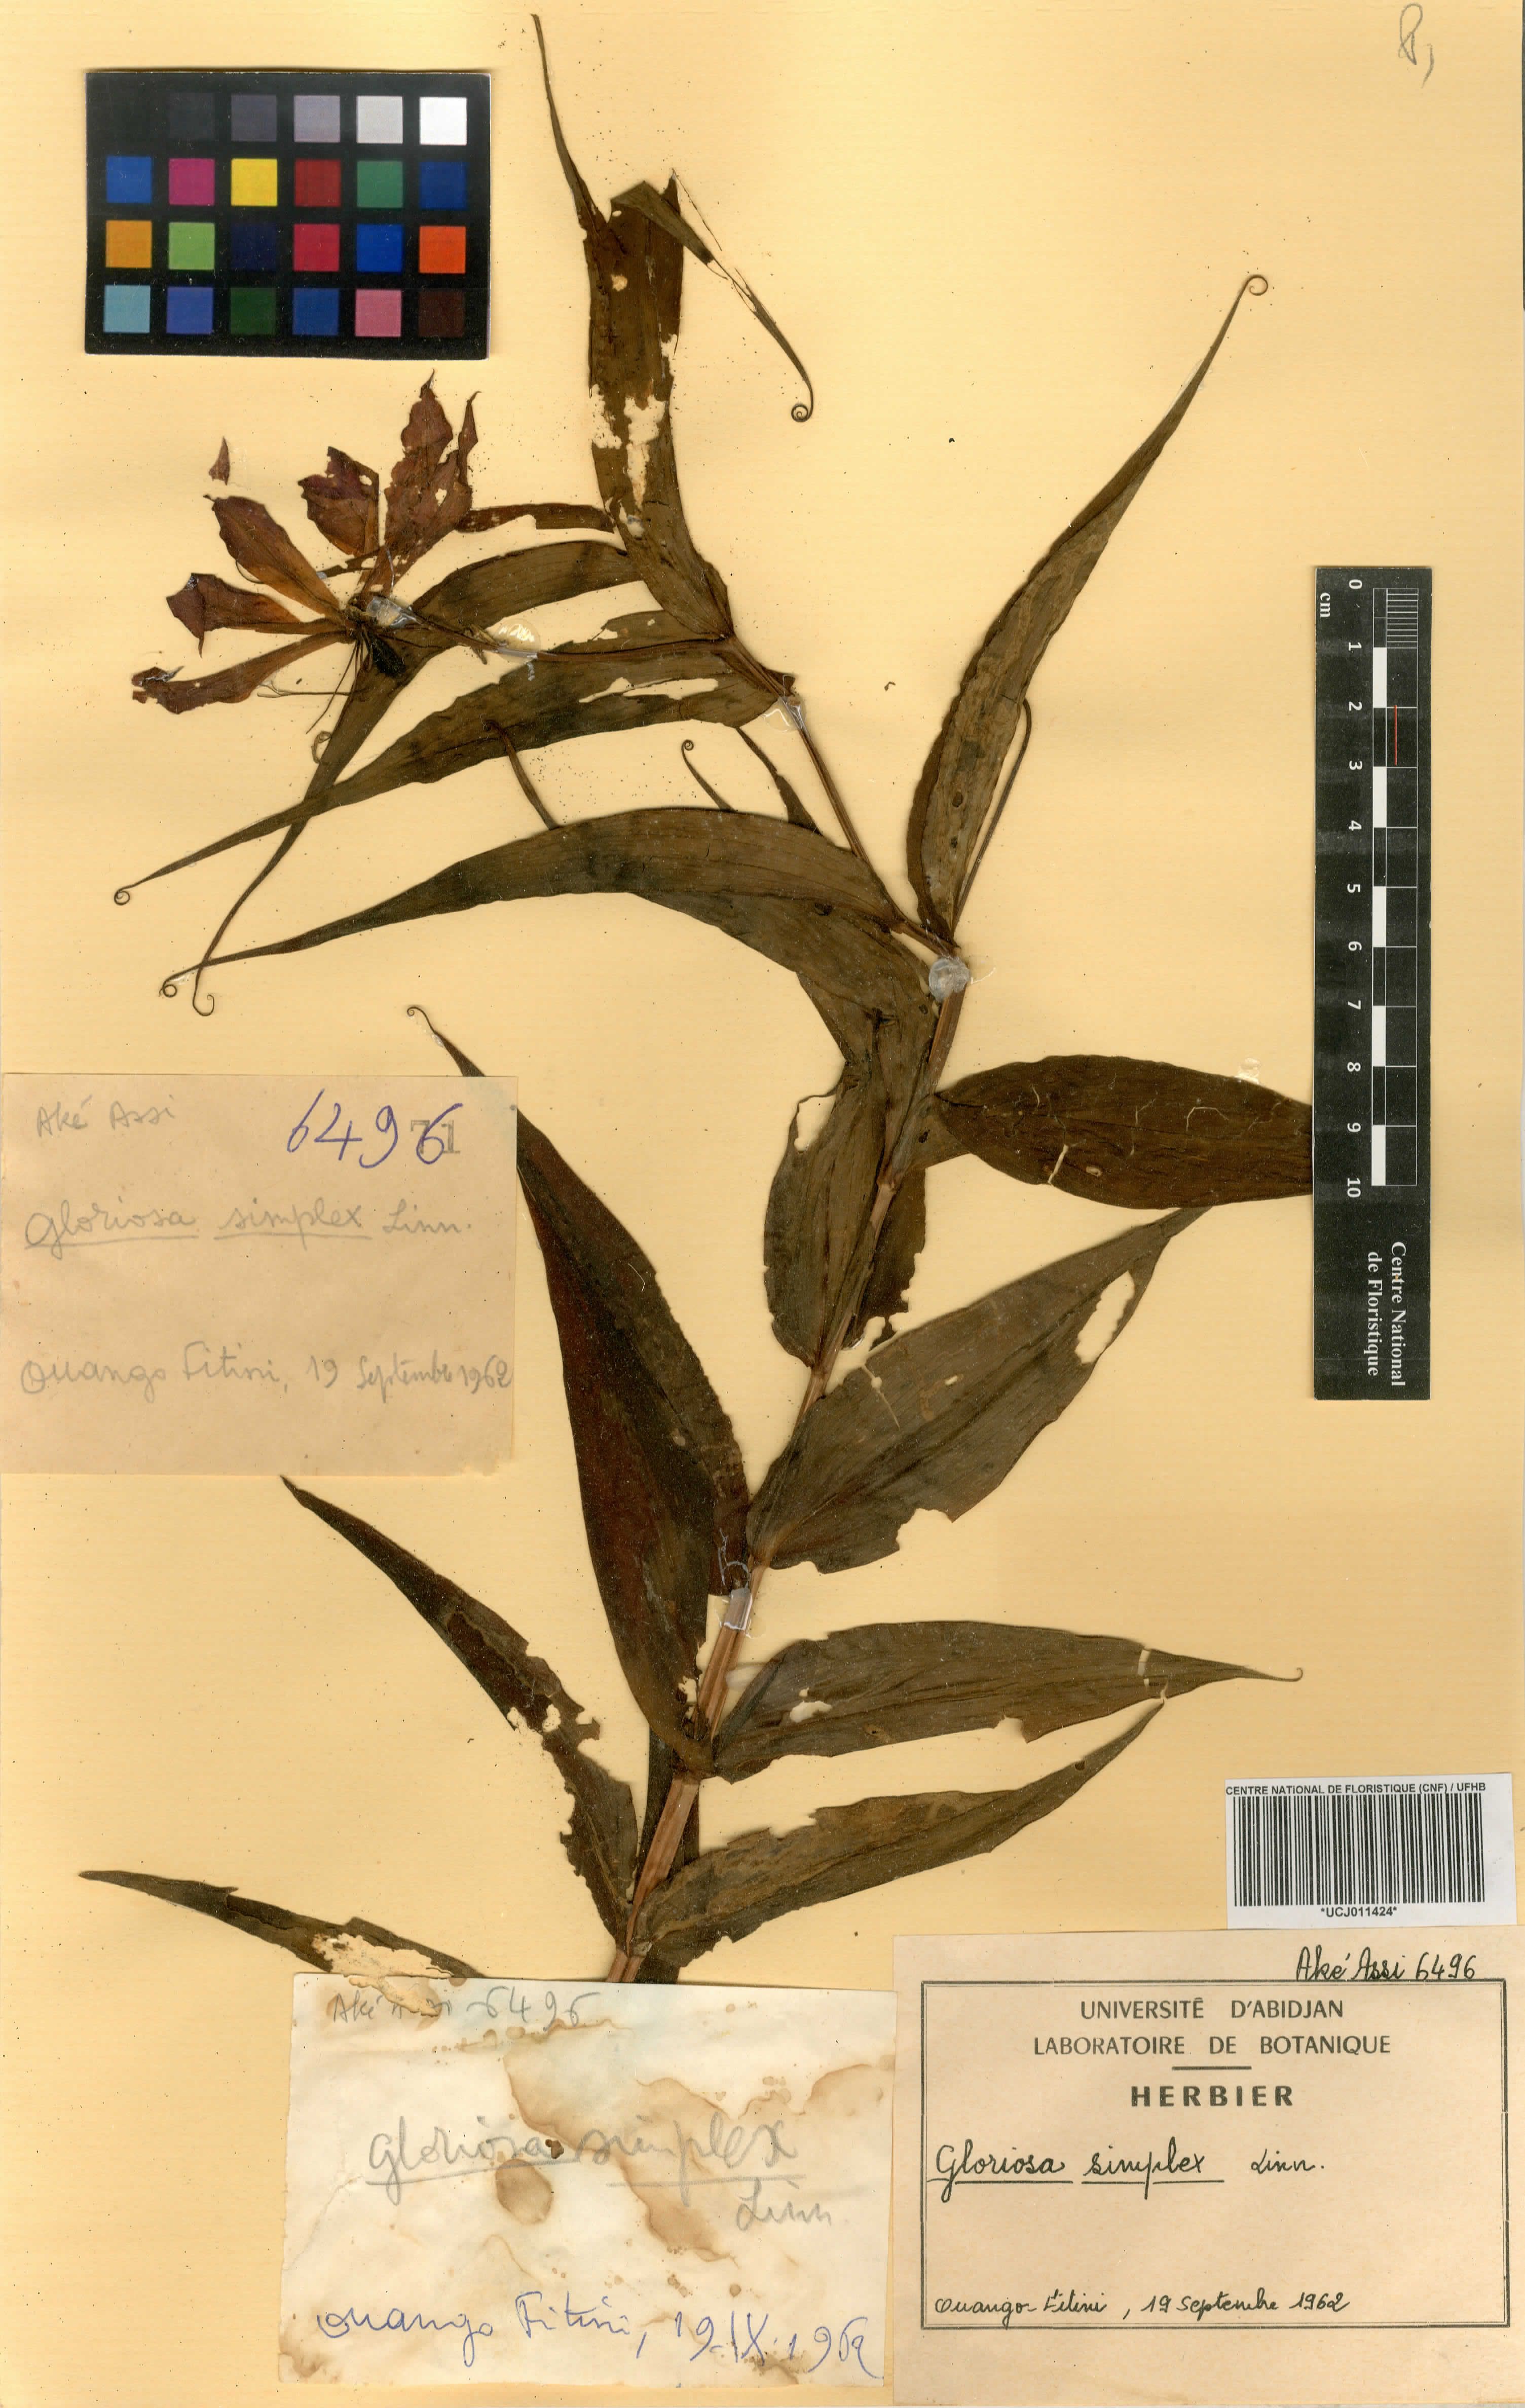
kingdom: Plantae
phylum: Tracheophyta
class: Liliopsida
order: Liliales
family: Colchicaceae
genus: Gloriosa
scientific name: Gloriosa simplex
